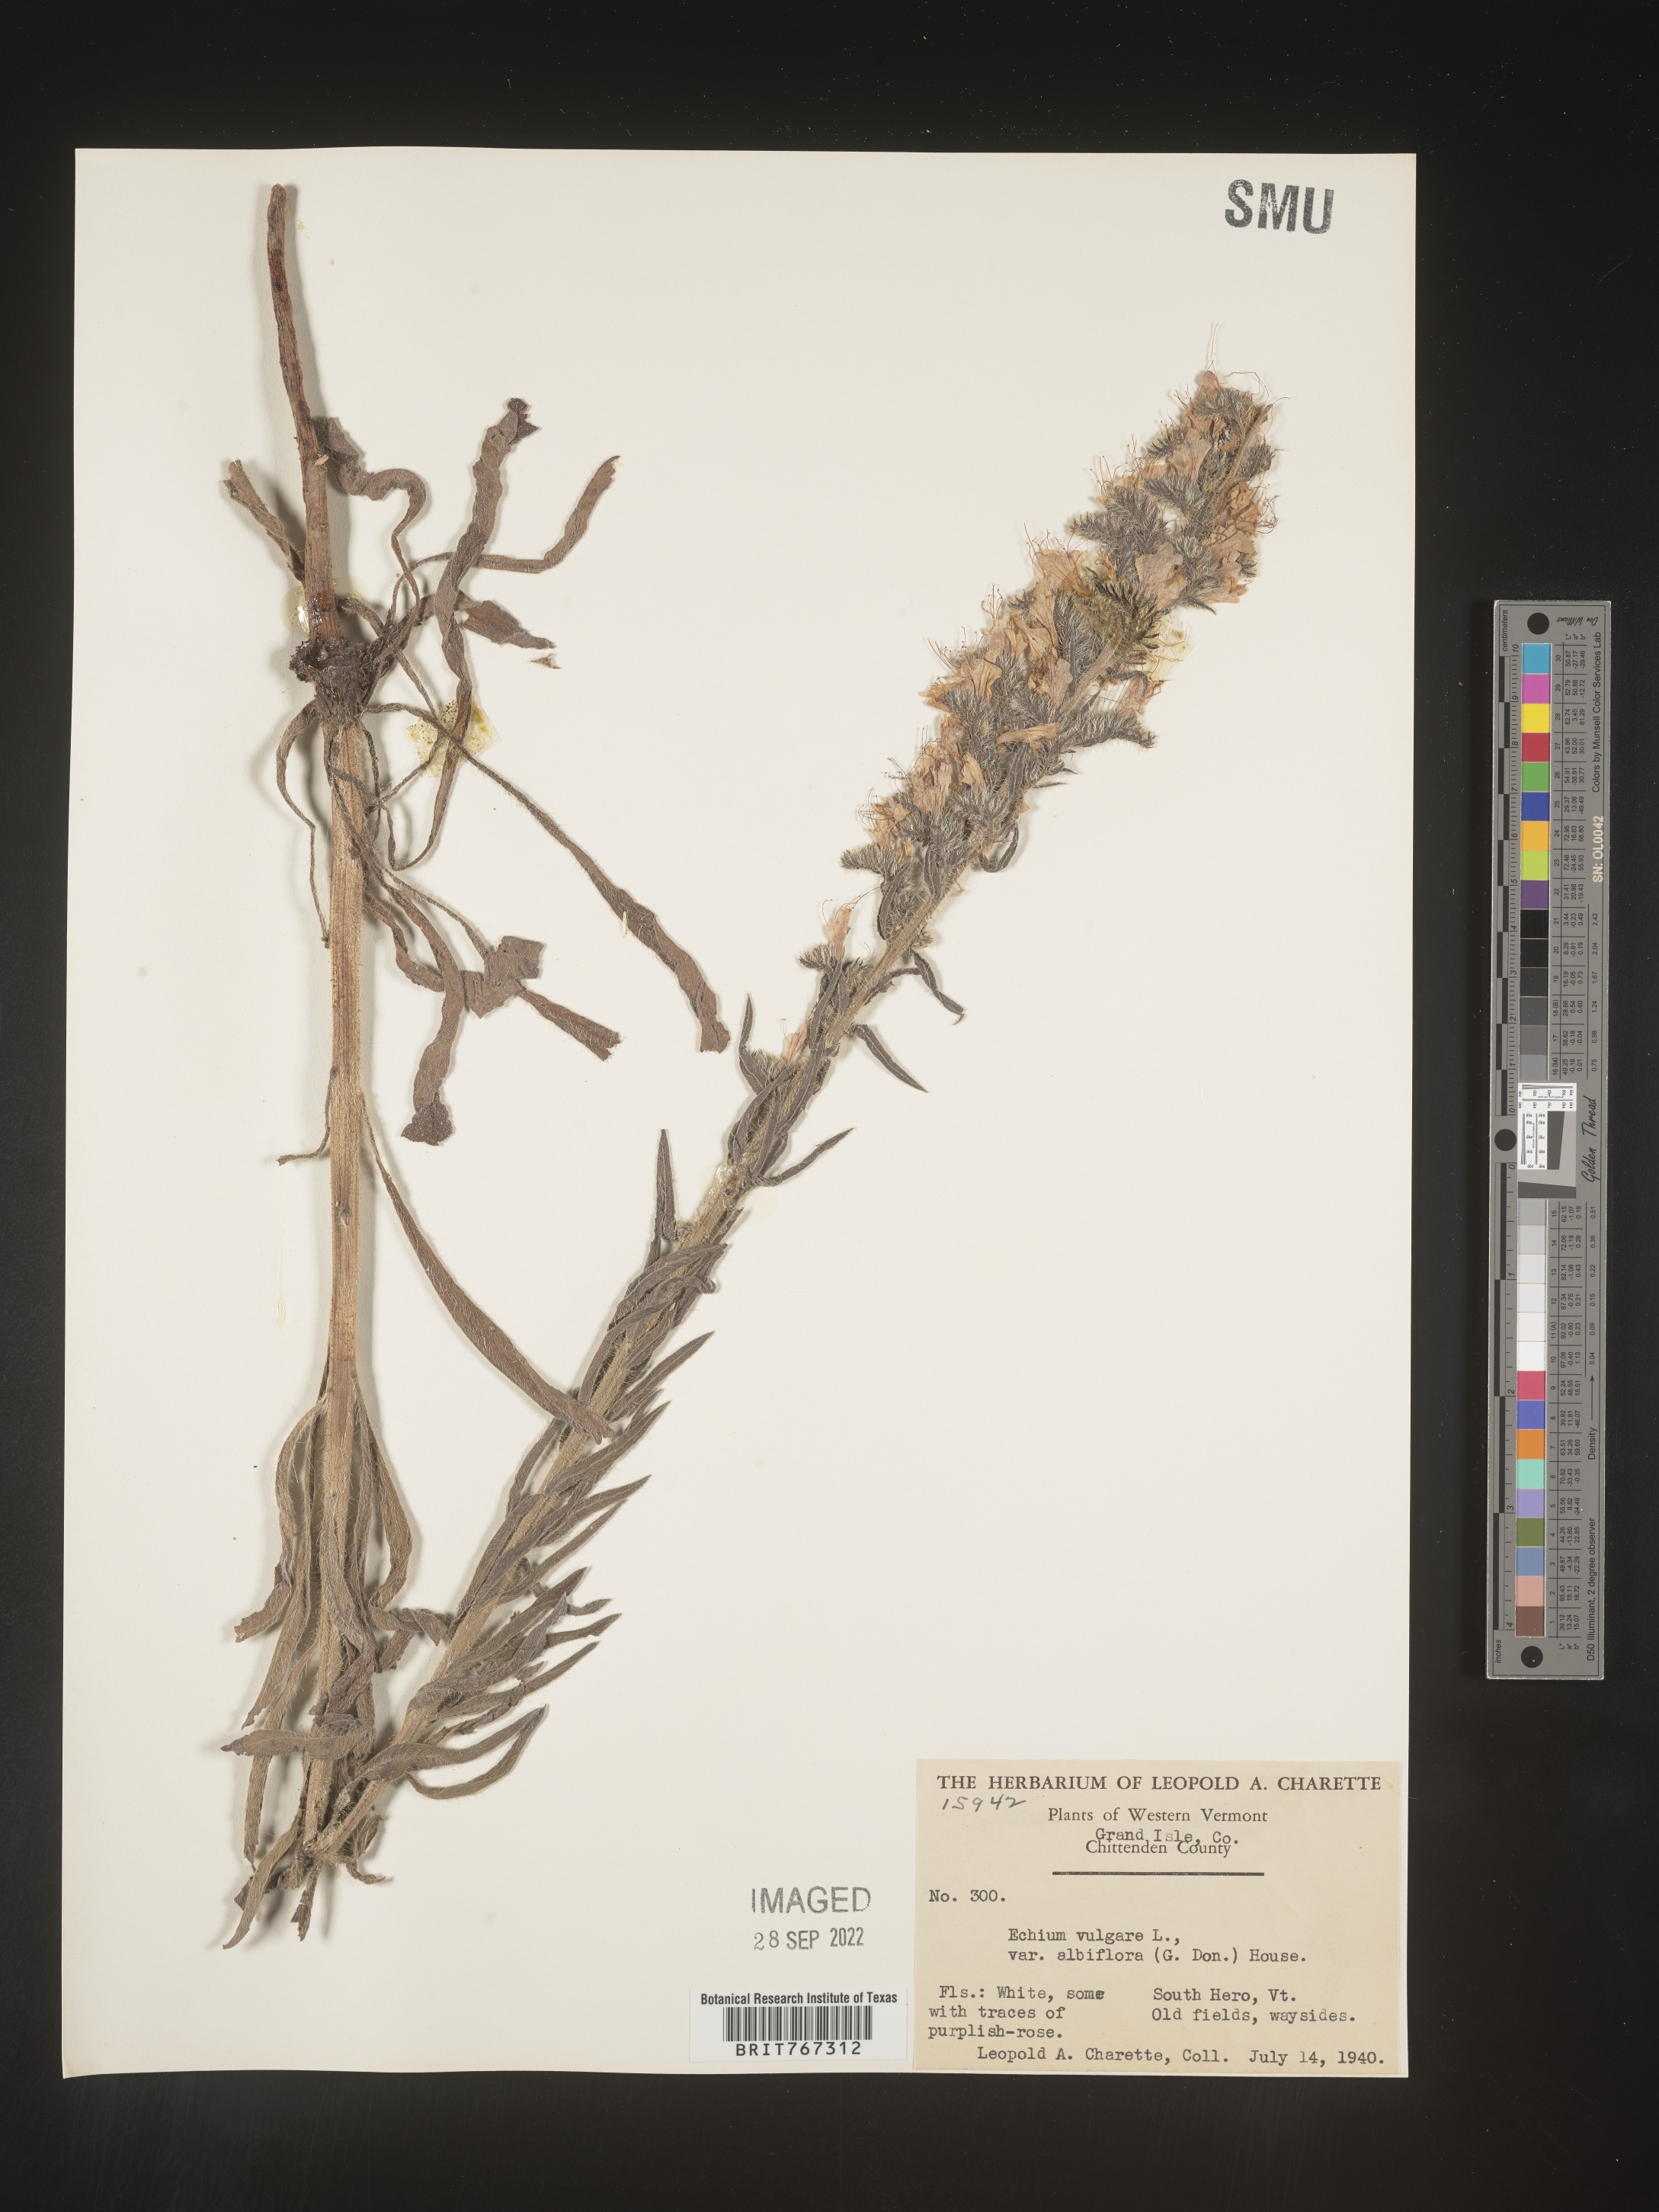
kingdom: Plantae
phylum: Tracheophyta
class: Magnoliopsida
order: Boraginales
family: Boraginaceae
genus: Echium
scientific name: Echium
